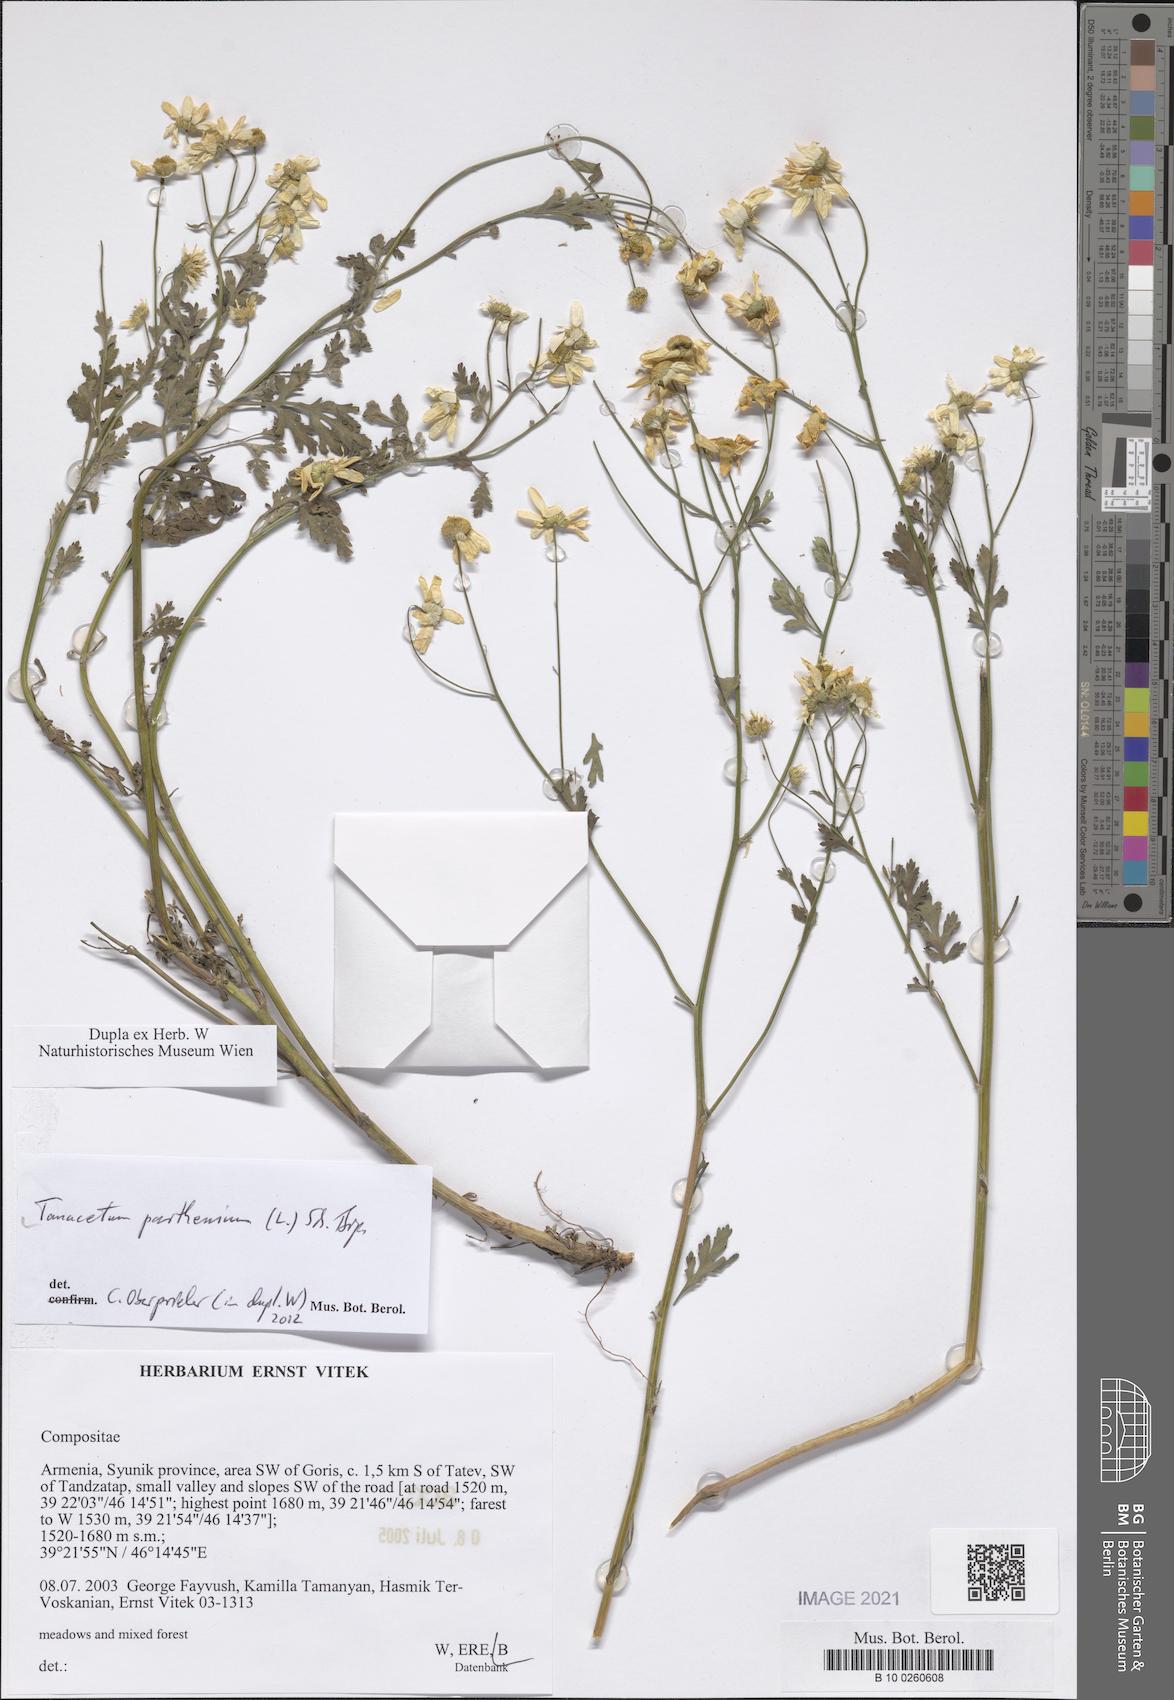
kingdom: Plantae
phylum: Tracheophyta
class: Magnoliopsida
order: Asterales
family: Asteraceae
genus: Tanacetum
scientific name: Tanacetum parthenium
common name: Feverfew
